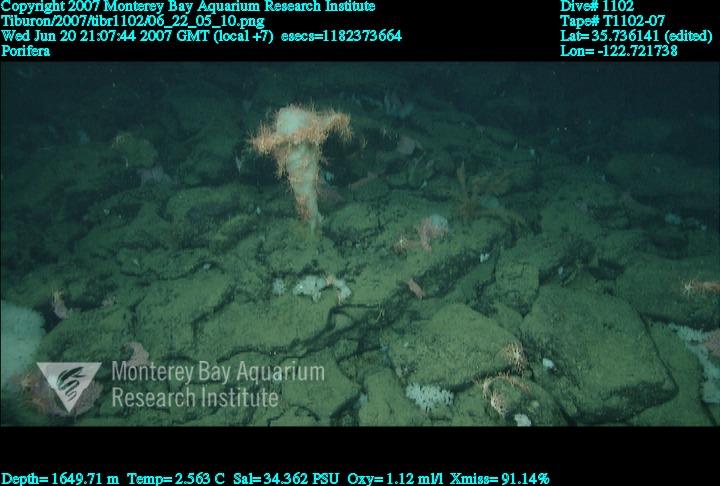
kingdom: Animalia
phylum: Porifera
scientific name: Porifera
